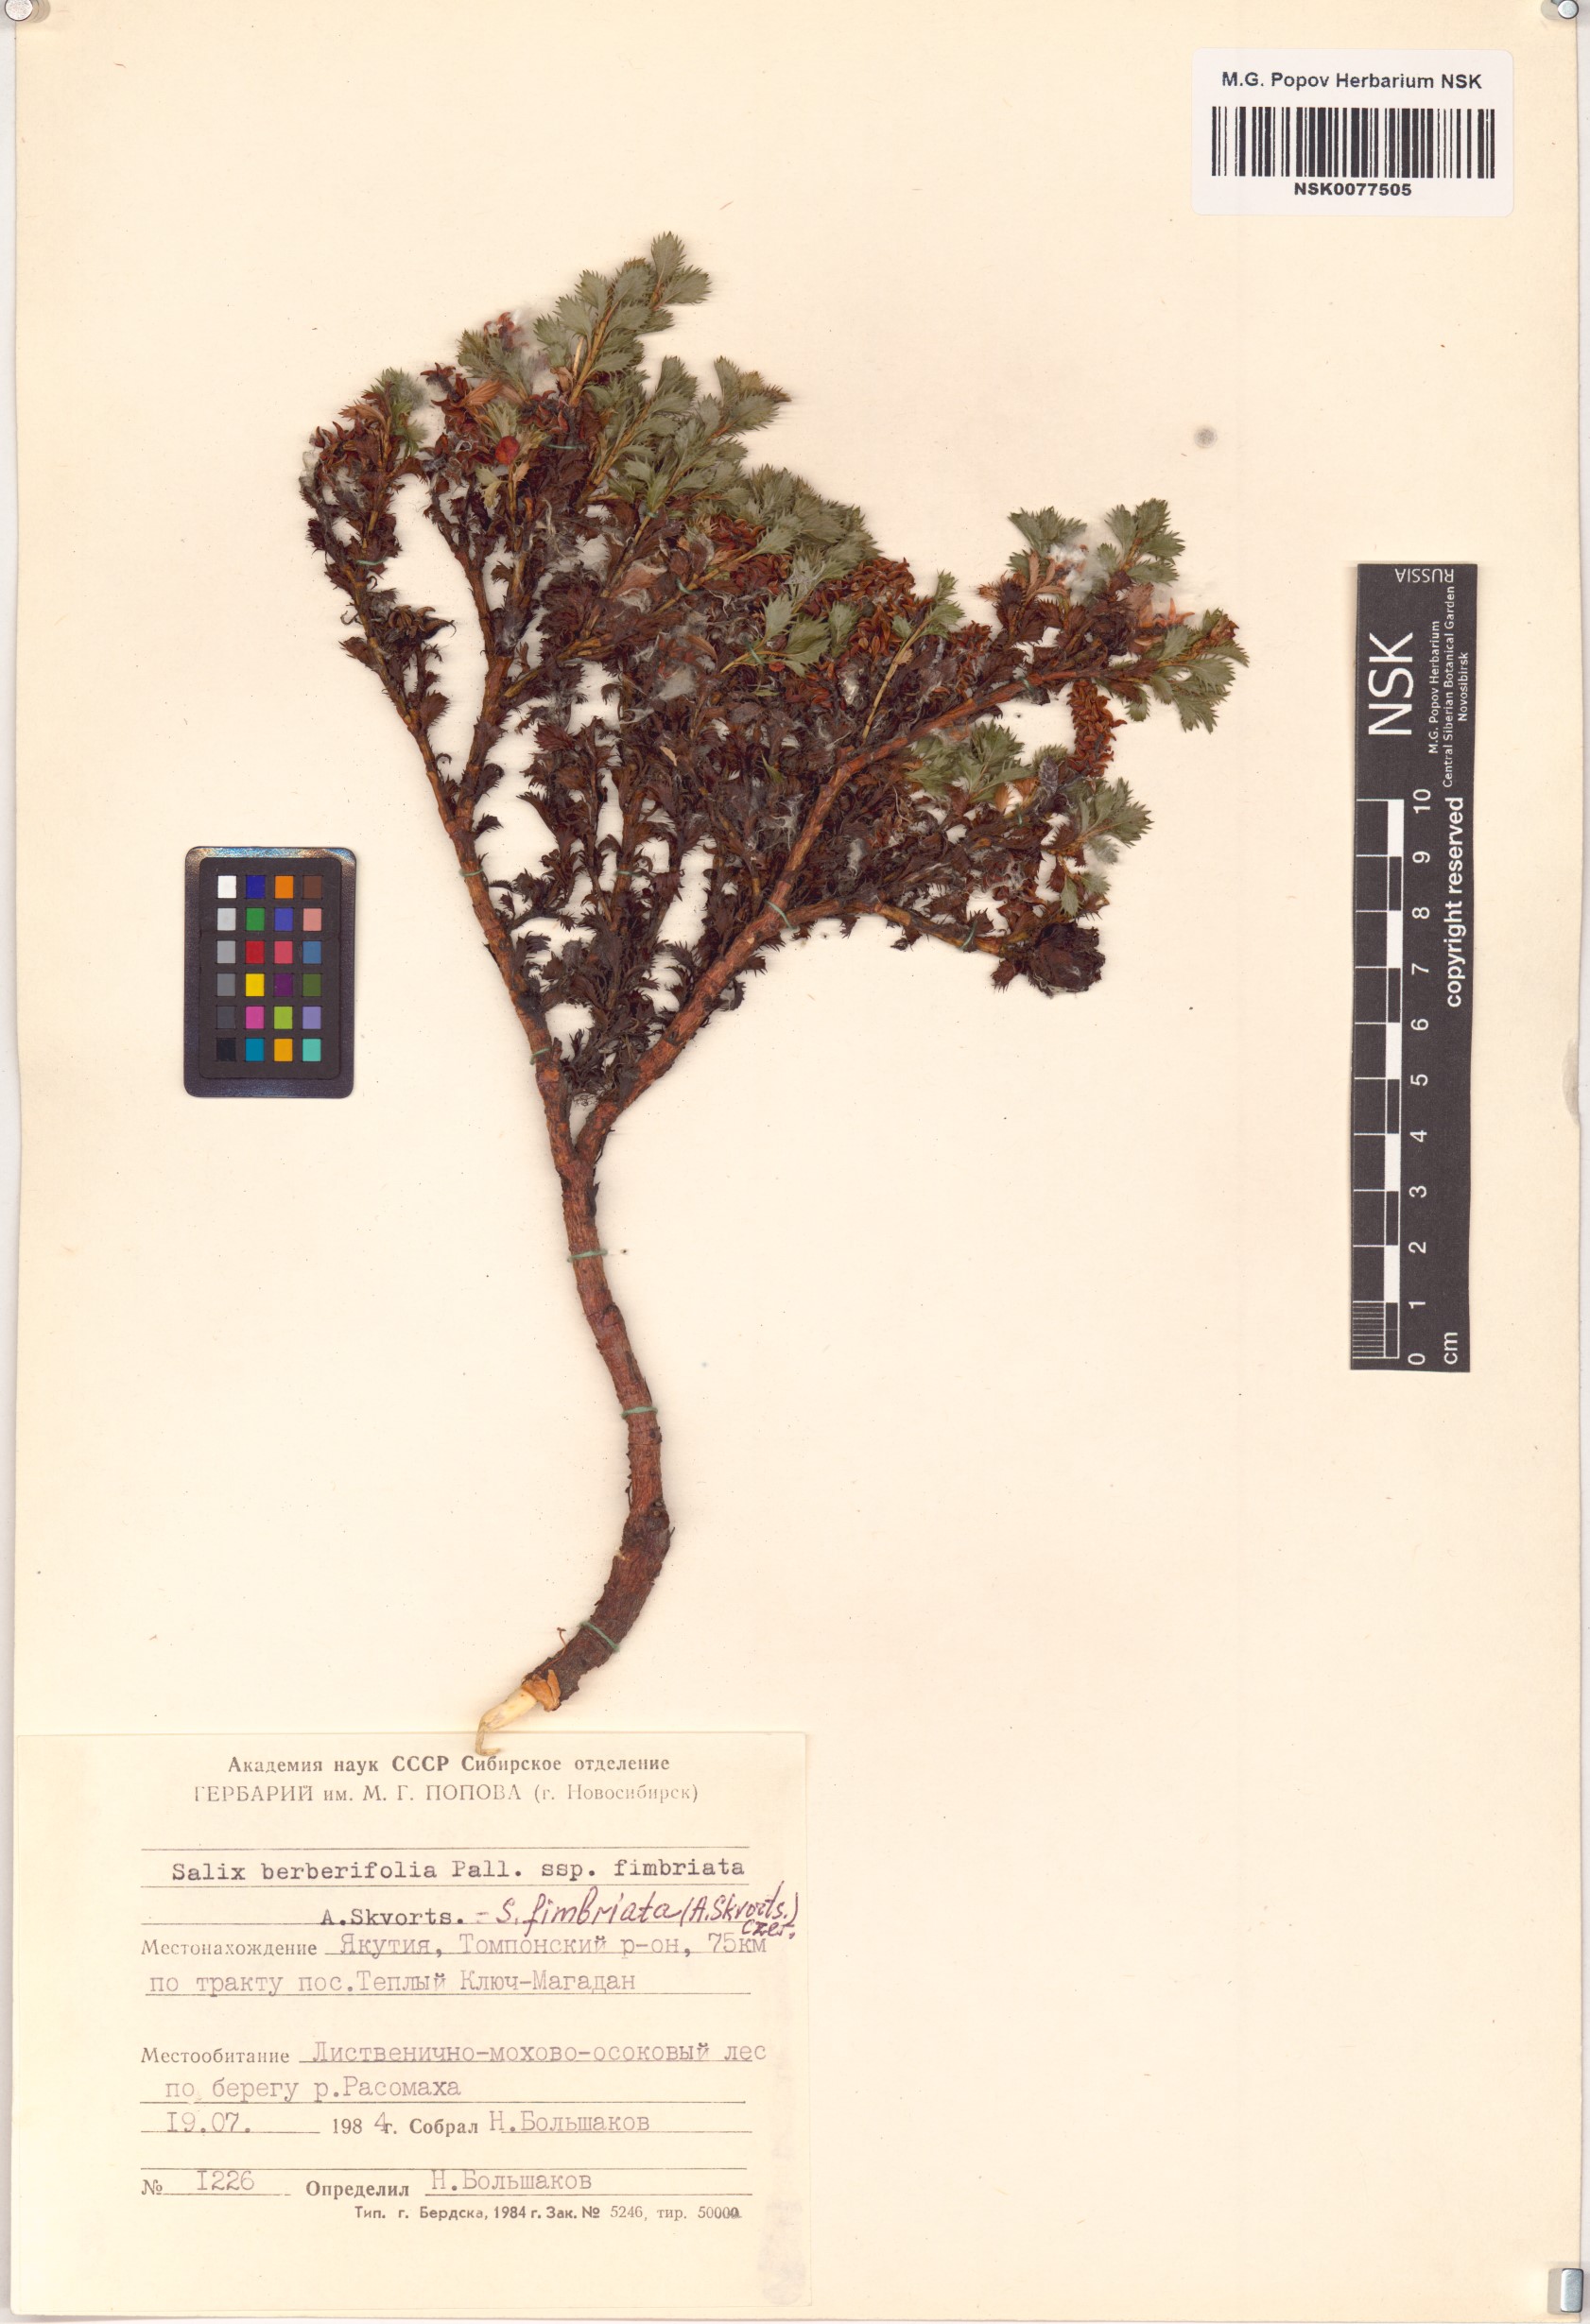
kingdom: Plantae
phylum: Tracheophyta
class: Magnoliopsida
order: Malpighiales
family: Salicaceae
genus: Salix
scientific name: Salix berberifolia
